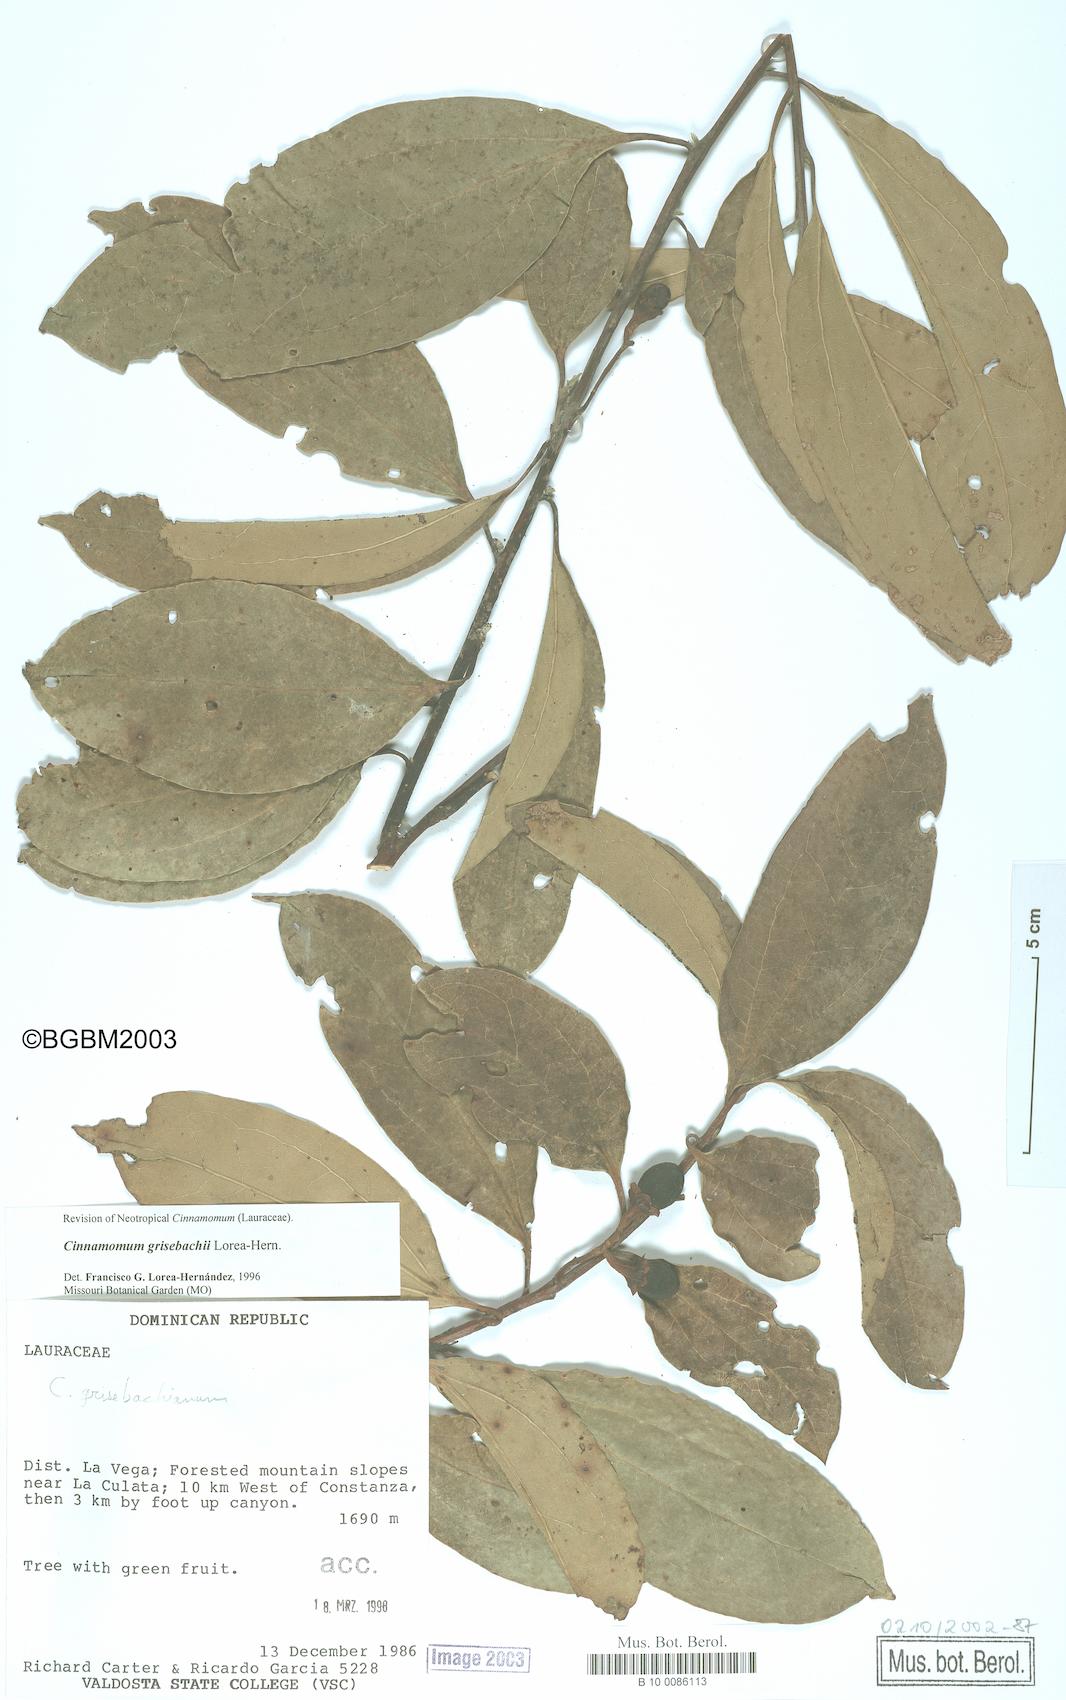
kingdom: Plantae
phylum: Tracheophyta
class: Magnoliopsida
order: Laurales
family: Lauraceae
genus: Aiouea
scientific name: Aiouea montana
